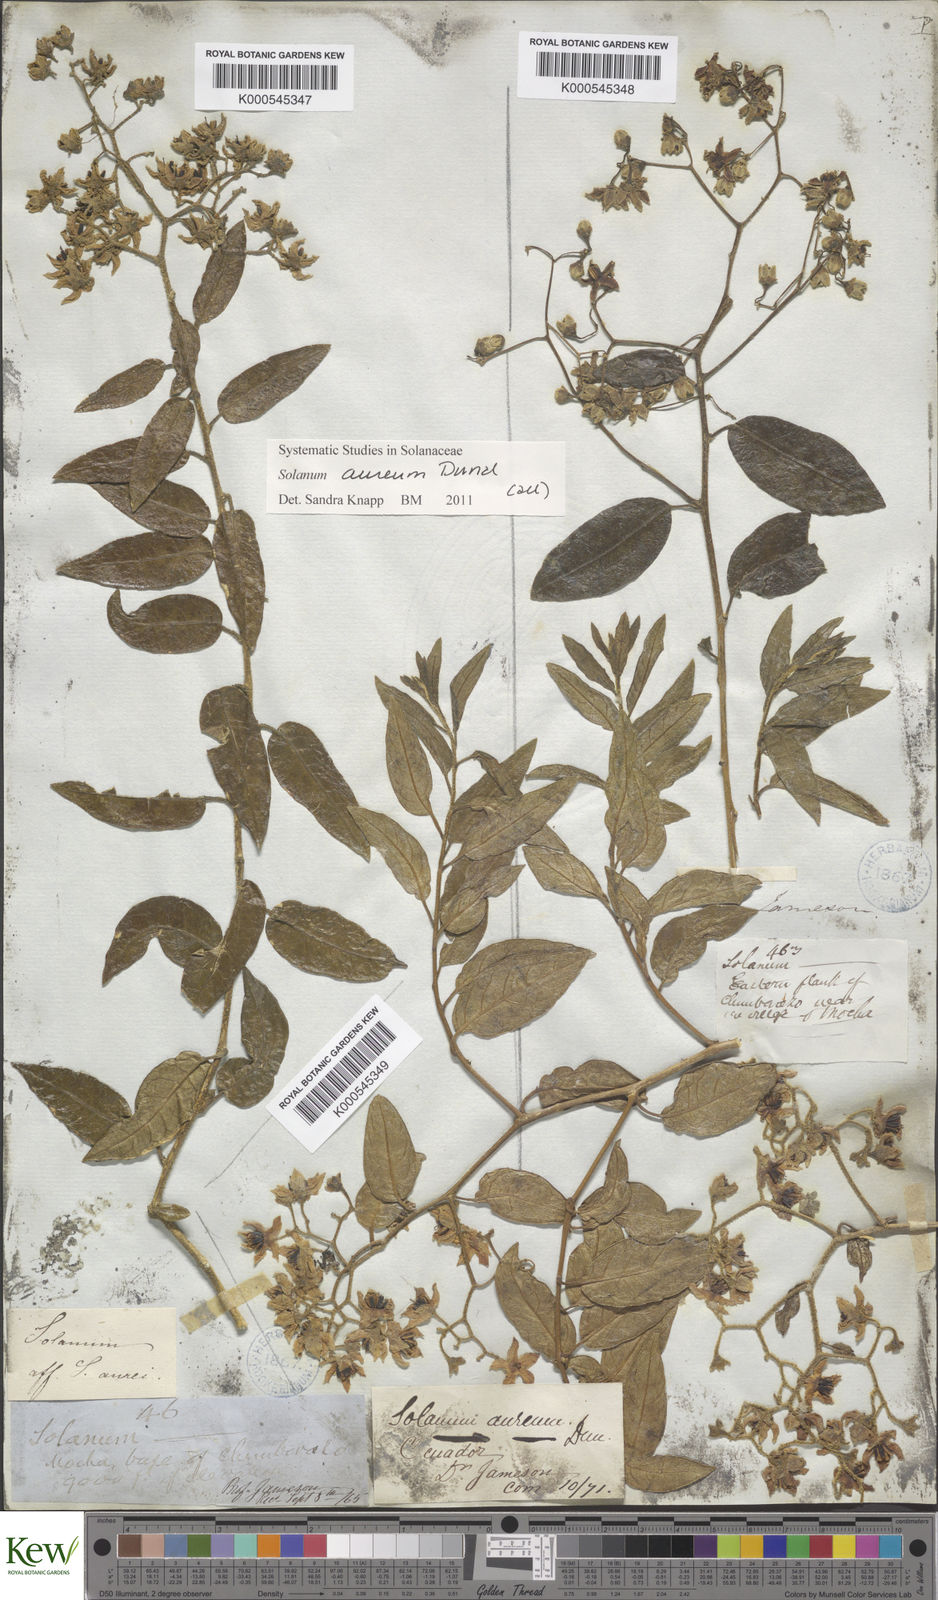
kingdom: Plantae
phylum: Tracheophyta
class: Magnoliopsida
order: Solanales
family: Solanaceae
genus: Solanum
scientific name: Solanum aureum
